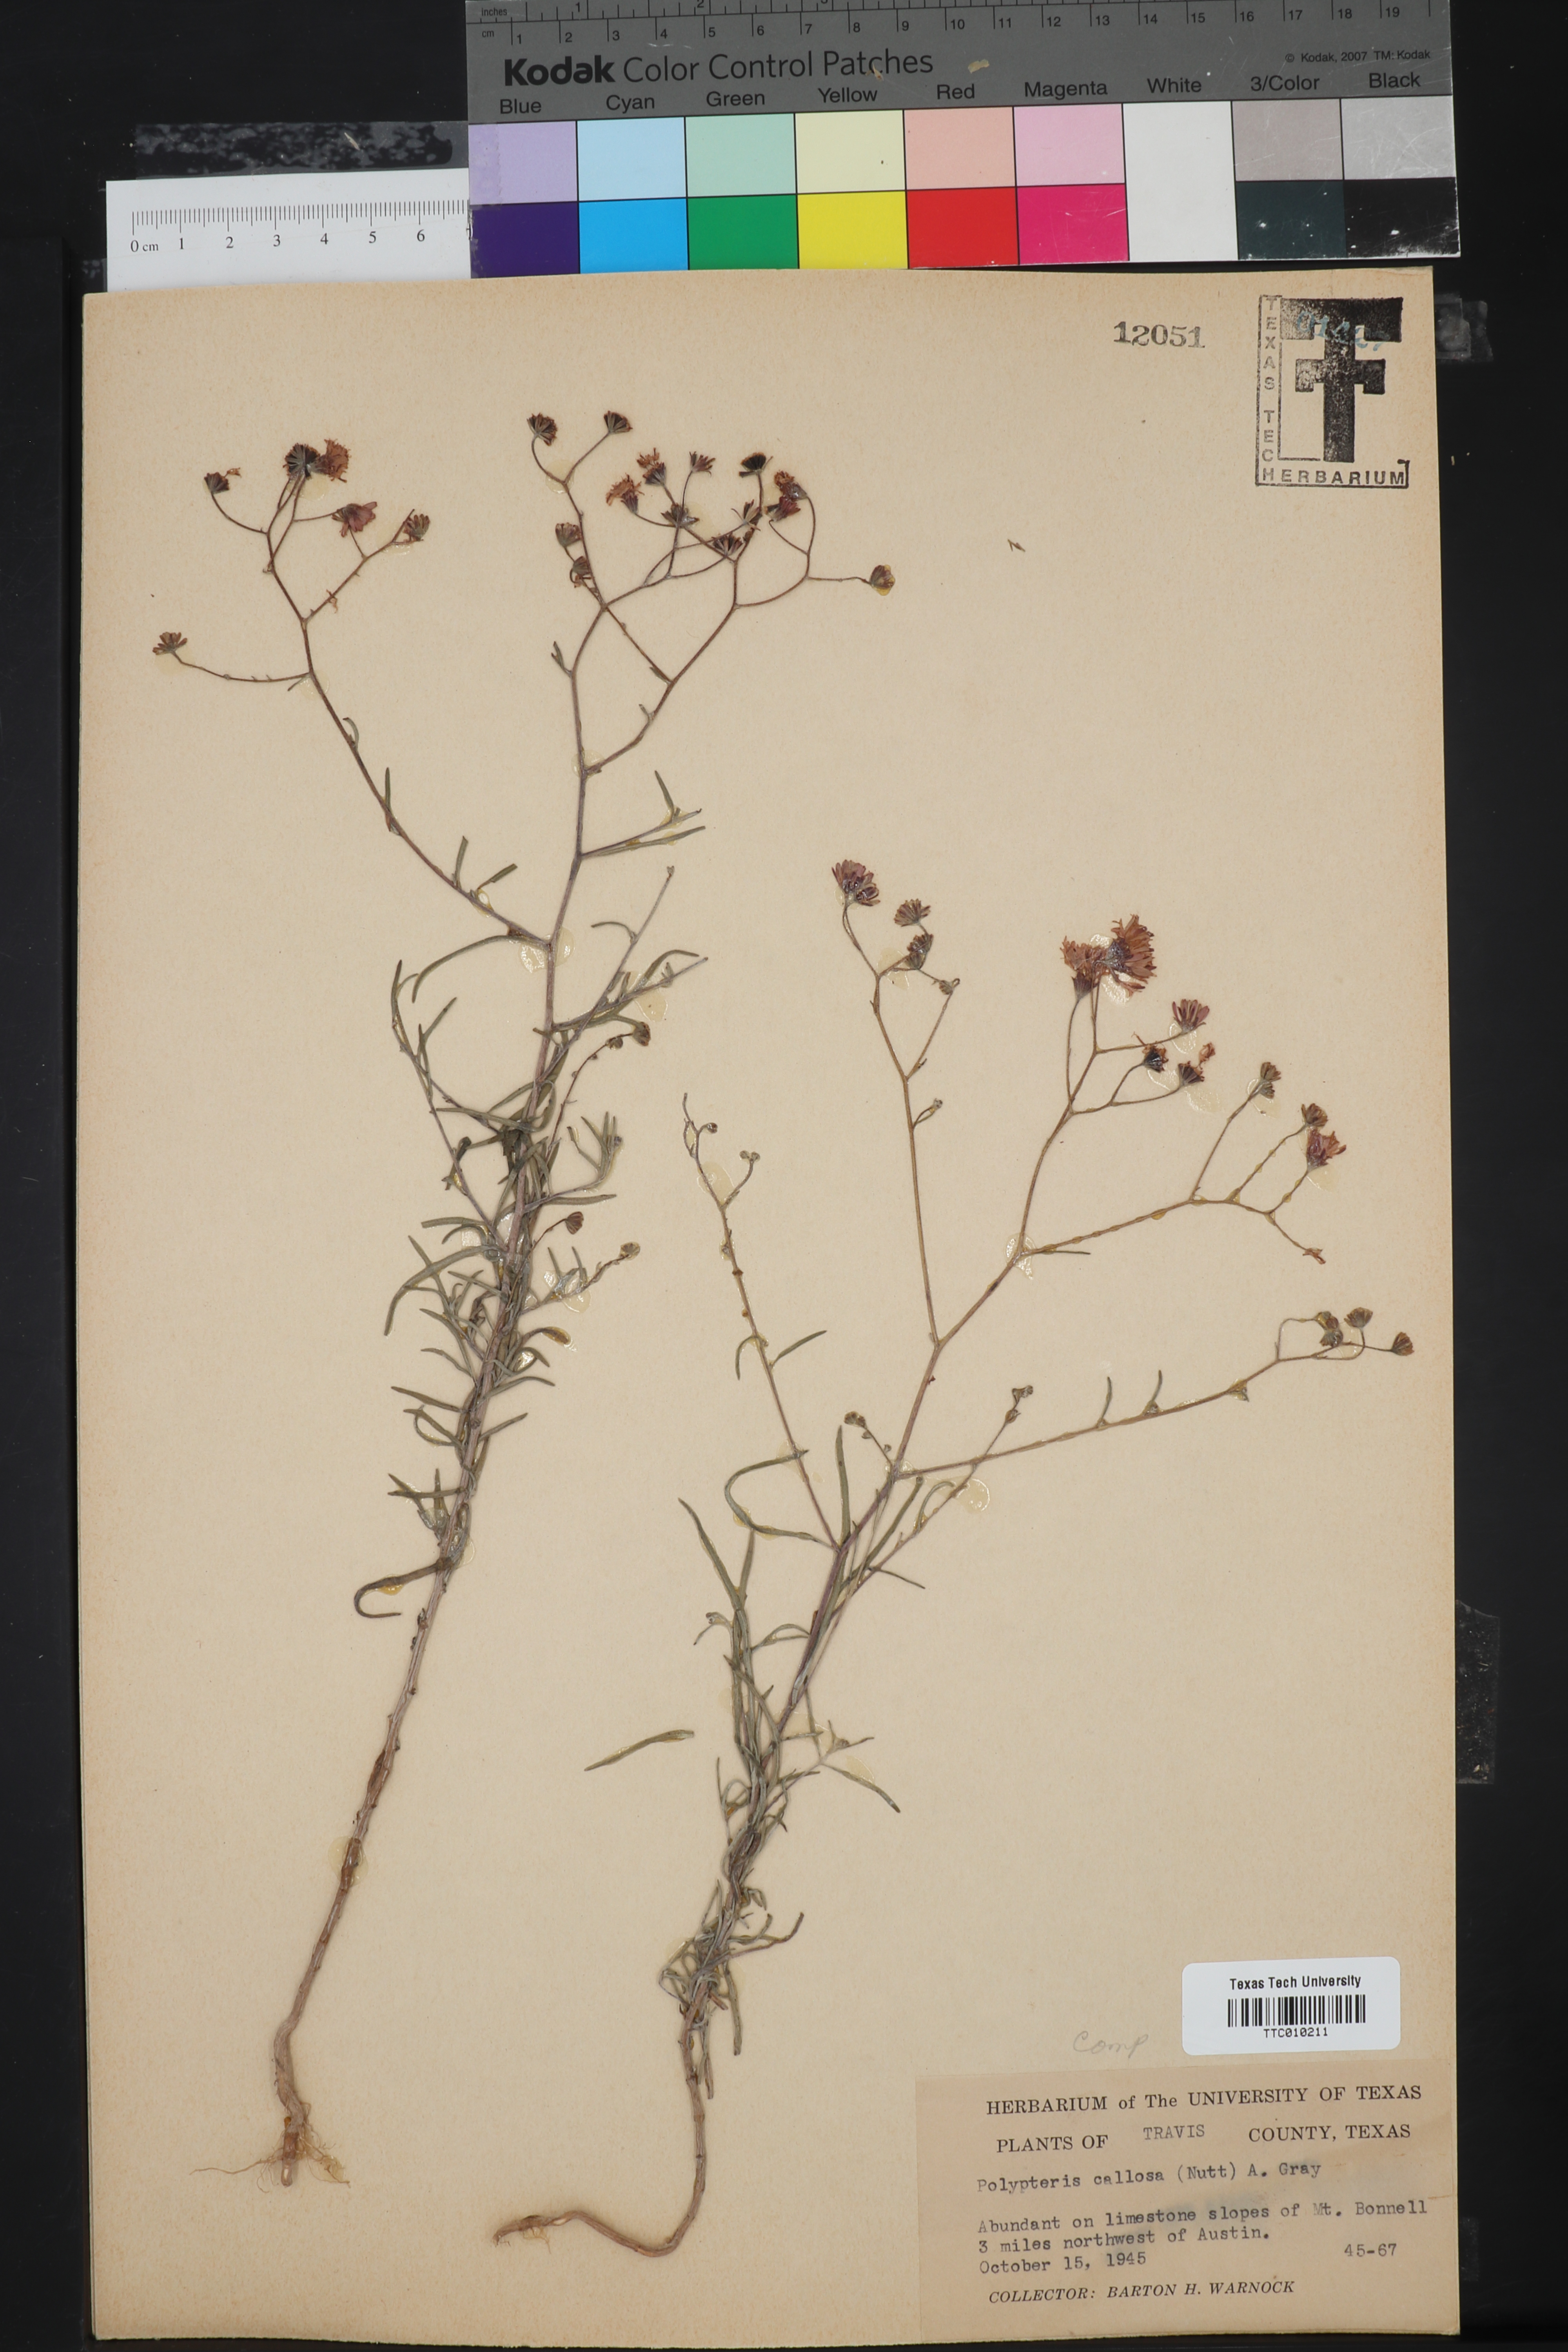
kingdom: Plantae
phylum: Tracheophyta
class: Magnoliopsida
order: Asterales
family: Asteraceae
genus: Palafoxia
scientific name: Palafoxia callosa
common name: Small palafox
